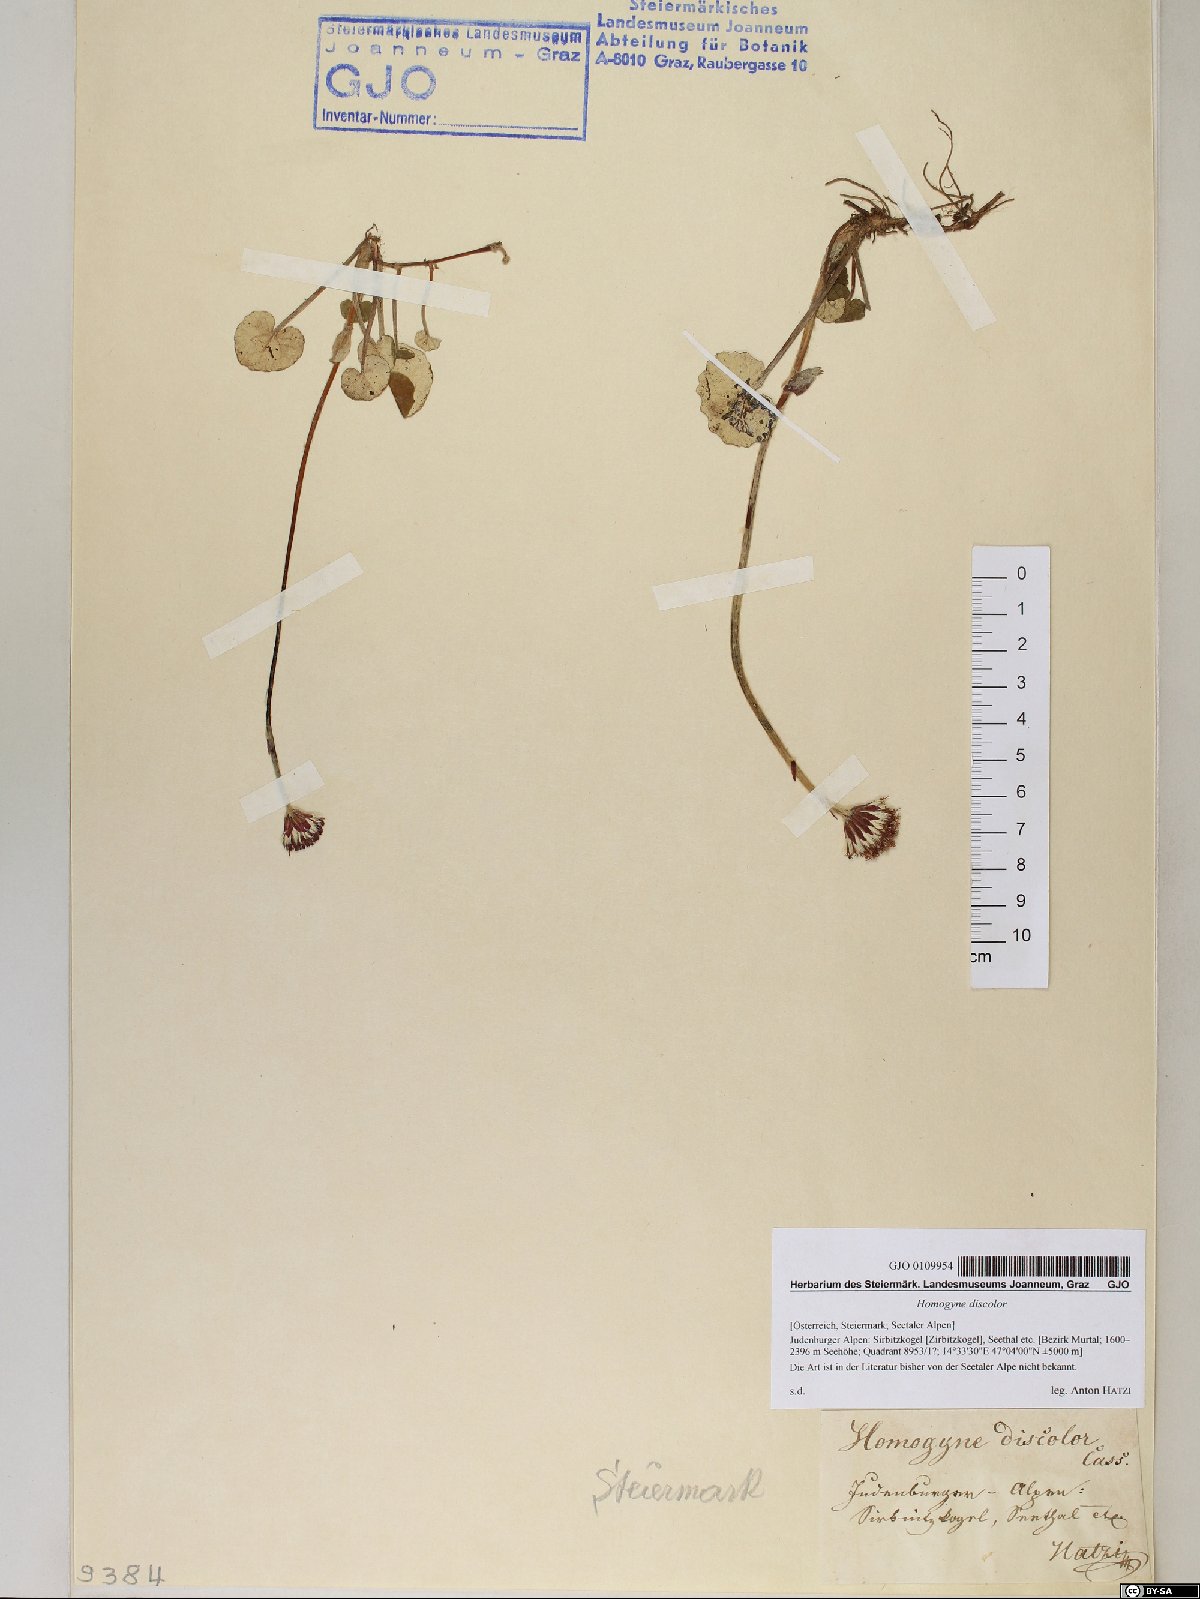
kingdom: Plantae
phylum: Tracheophyta
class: Magnoliopsida
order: Asterales
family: Asteraceae
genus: Homogyne
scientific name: Homogyne discolor
